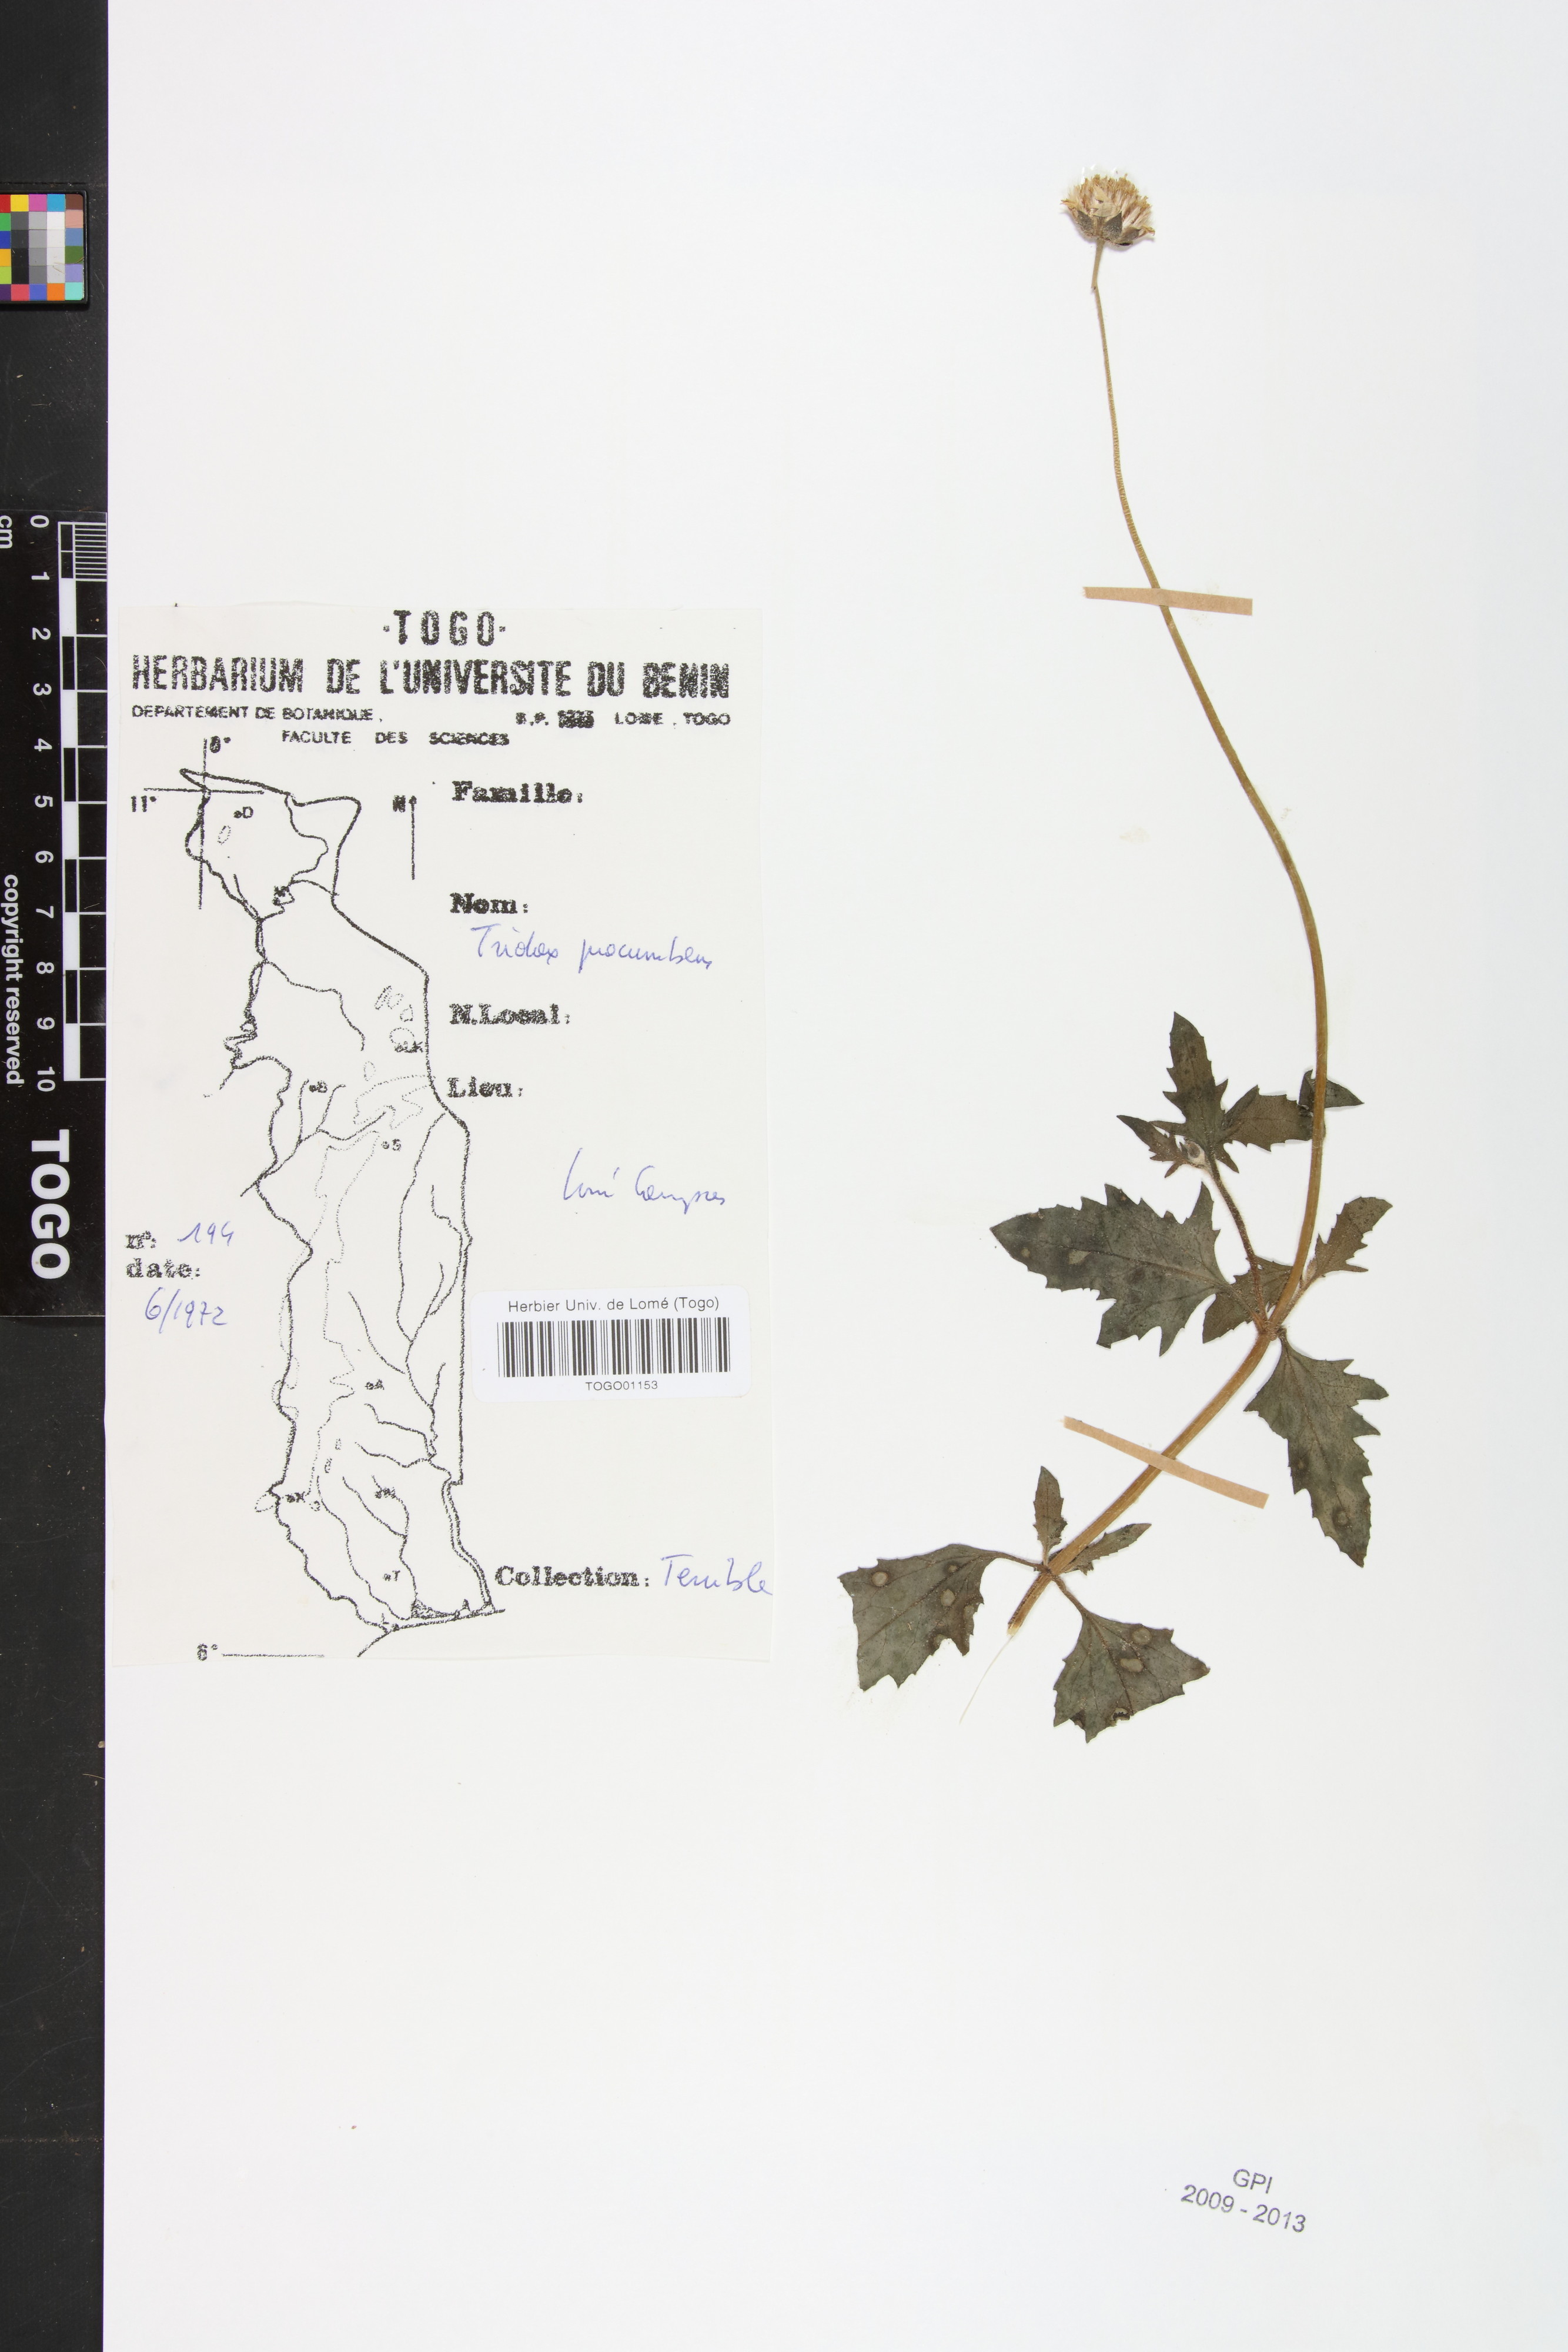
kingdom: Plantae
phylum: Tracheophyta
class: Magnoliopsida
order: Asterales
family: Asteraceae
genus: Tridax
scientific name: Tridax procumbens
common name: Coatbuttons
